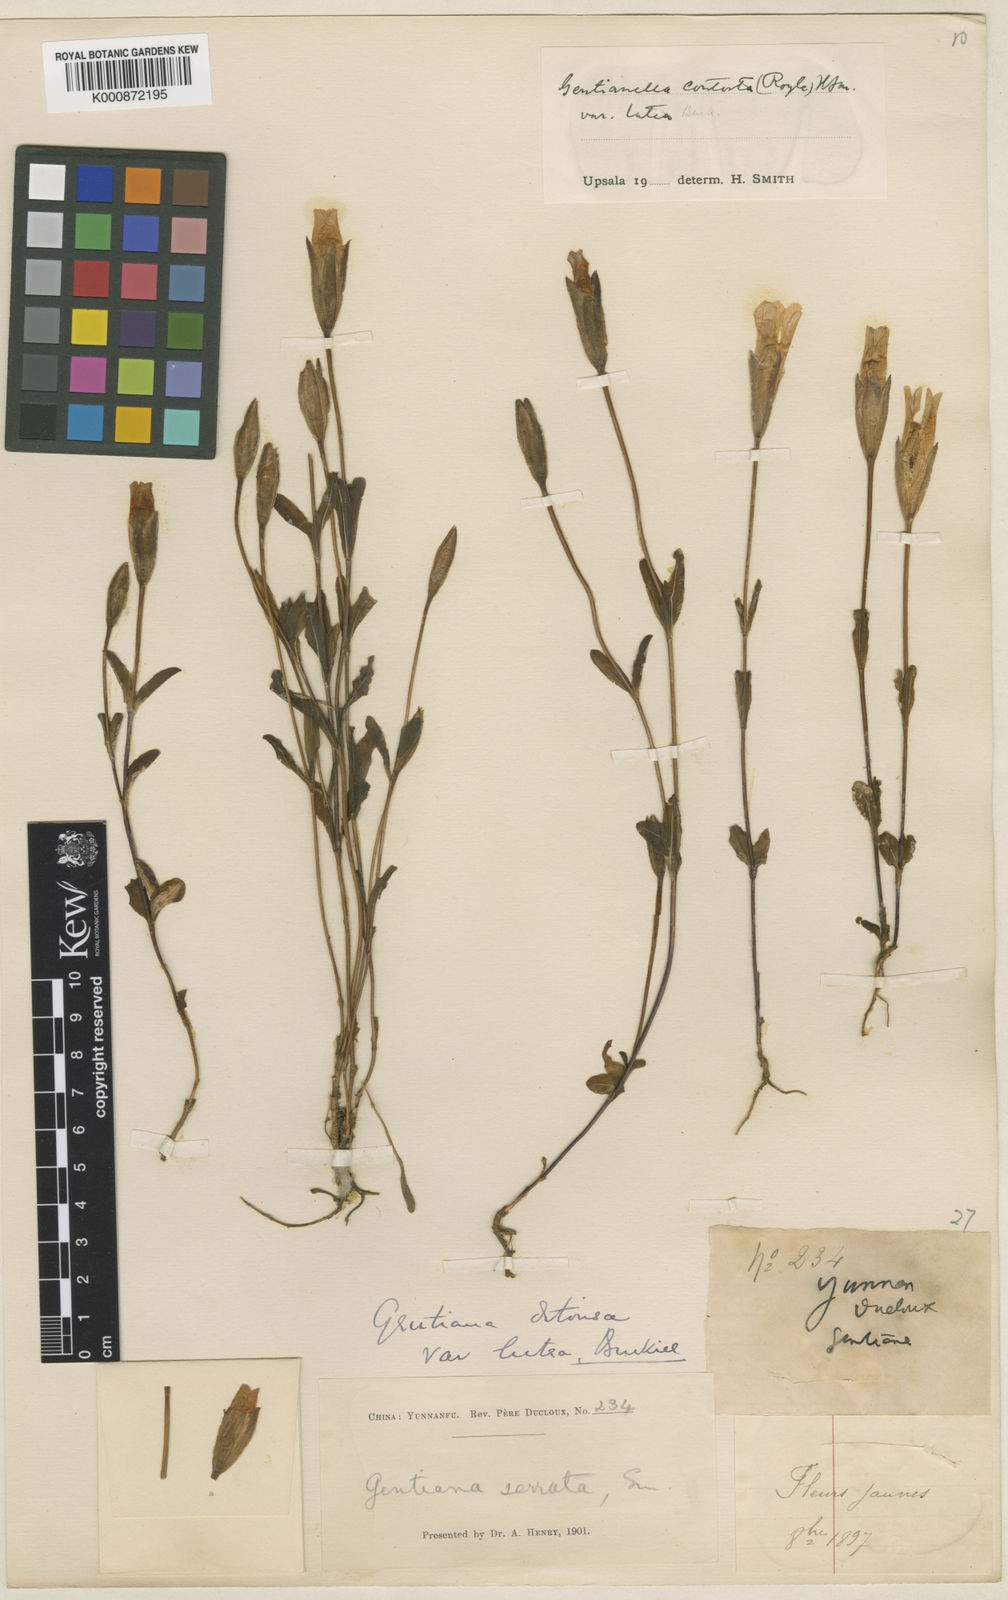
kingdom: Plantae
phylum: Tracheophyta
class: Magnoliopsida
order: Gentianales
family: Gentianaceae
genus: Gentianopsis
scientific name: Gentianopsis contorta
